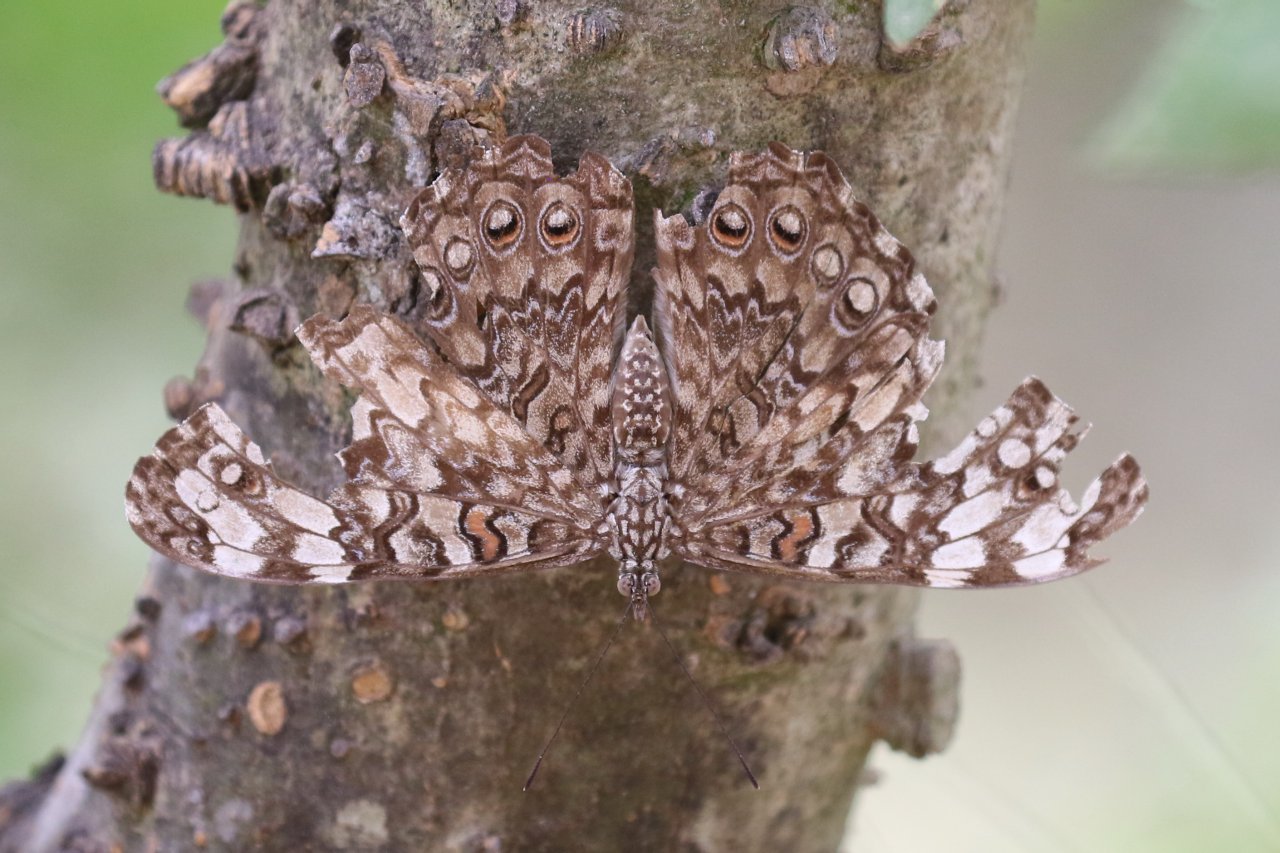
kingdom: Animalia
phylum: Arthropoda
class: Insecta
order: Lepidoptera
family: Nymphalidae
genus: Hamadryas
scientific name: Hamadryas februa
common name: Gray Cracker
